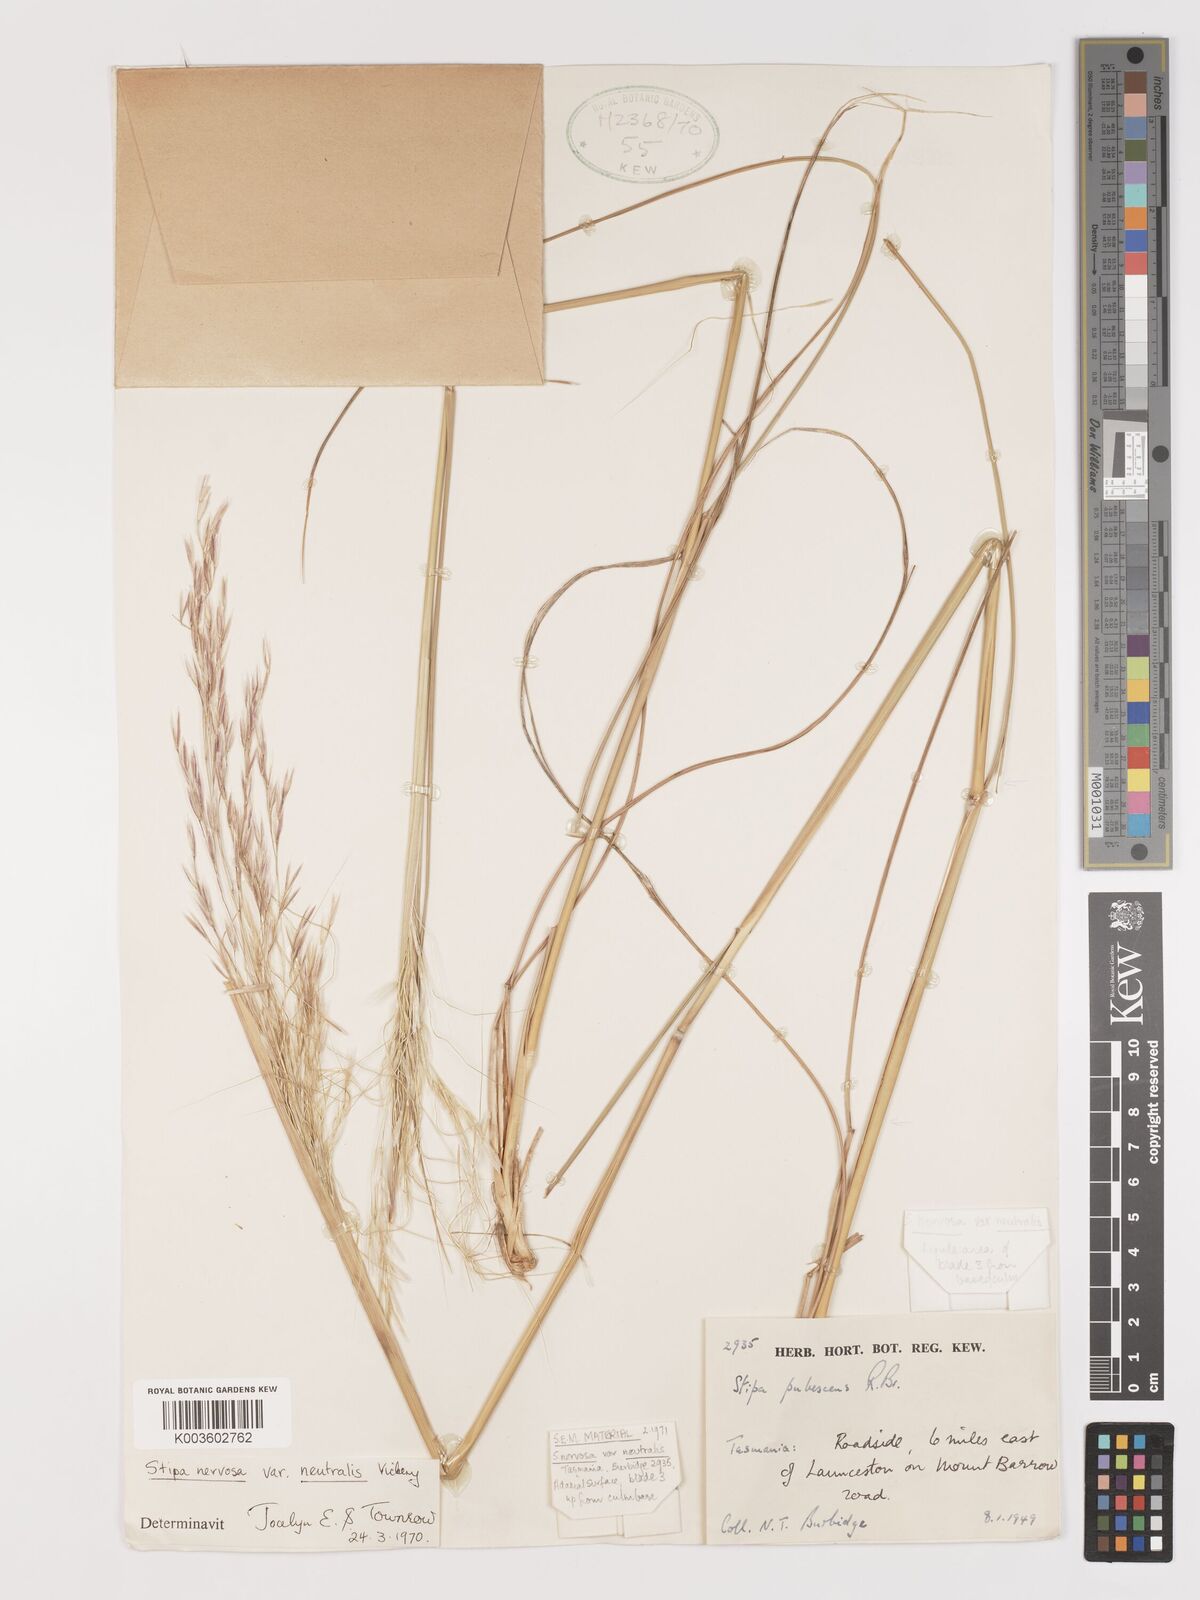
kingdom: Plantae
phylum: Tracheophyta
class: Liliopsida
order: Poales
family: Poaceae
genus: Austrostipa
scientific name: Austrostipa rudis
